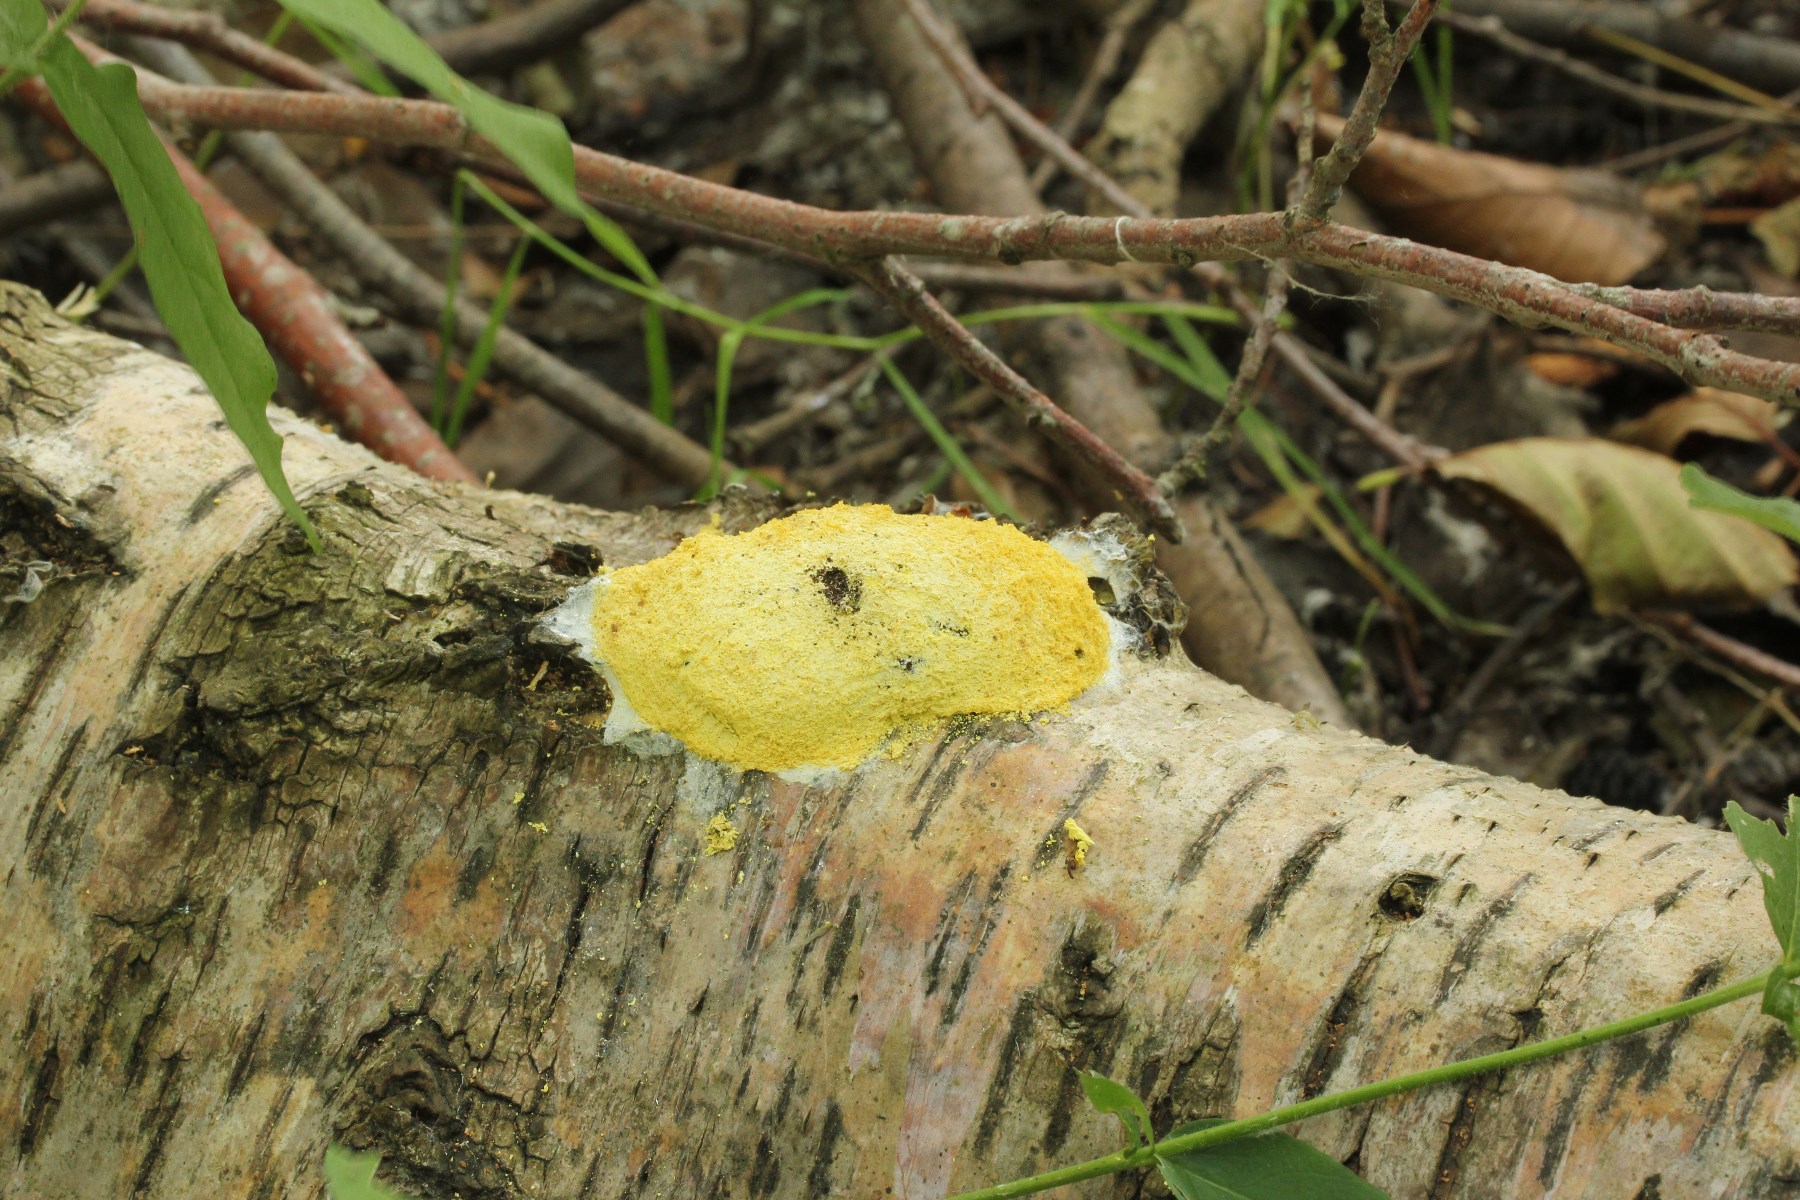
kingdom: Protozoa
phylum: Mycetozoa
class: Myxomycetes
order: Physarales
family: Physaraceae
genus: Fuligo
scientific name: Fuligo septica
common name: gul troldsmør
